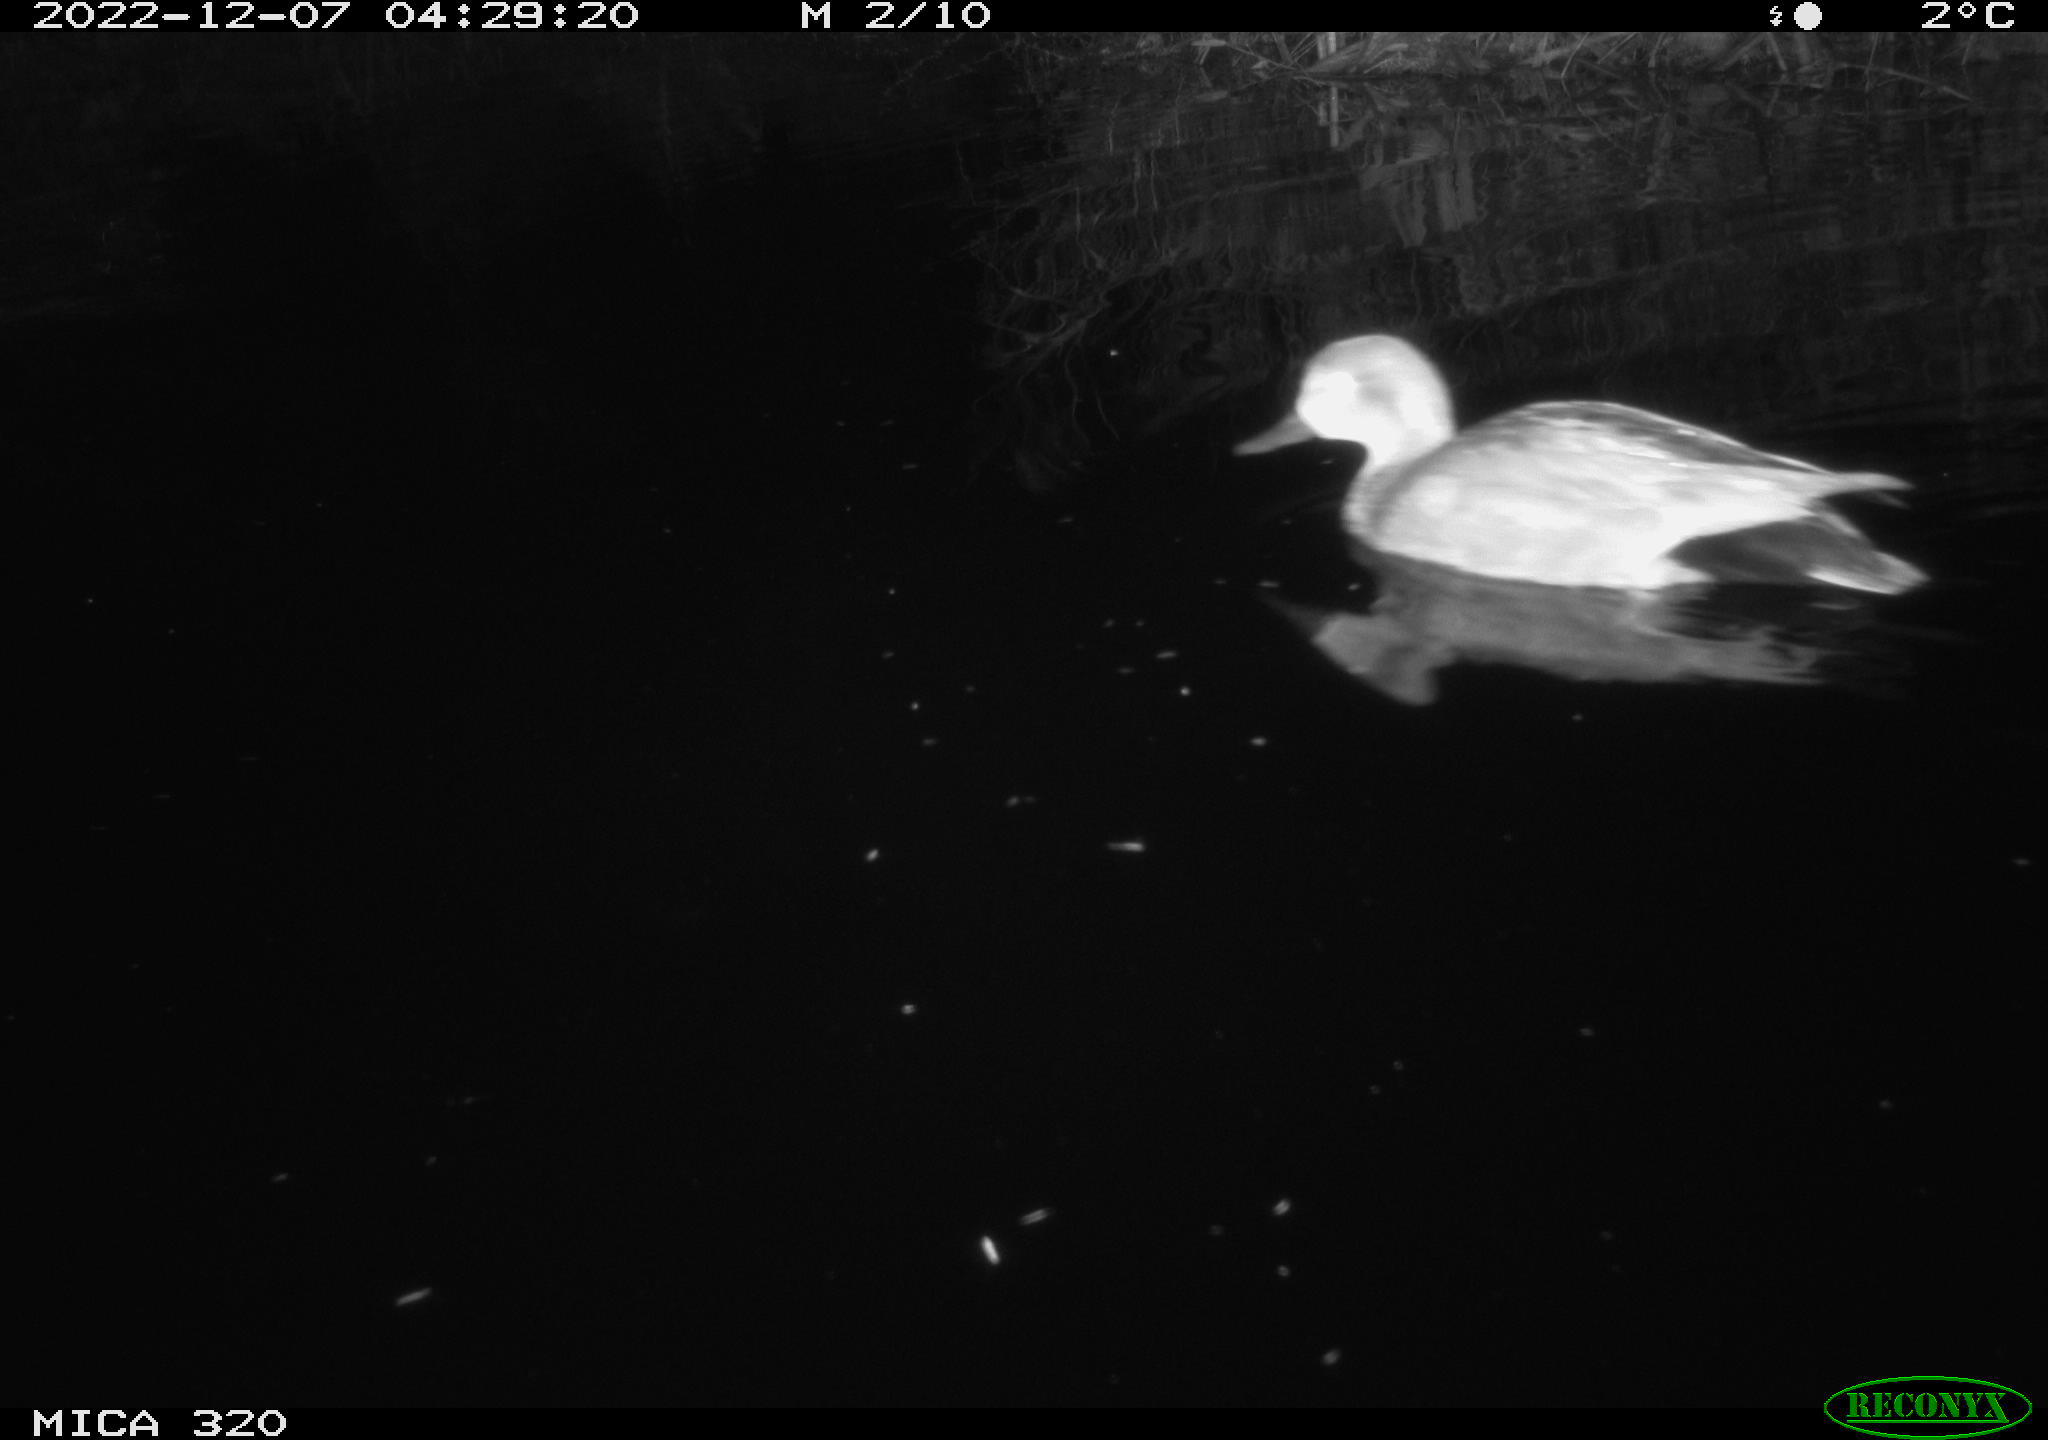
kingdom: Animalia
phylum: Chordata
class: Aves
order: Anseriformes
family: Anatidae
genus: Anas
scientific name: Anas
